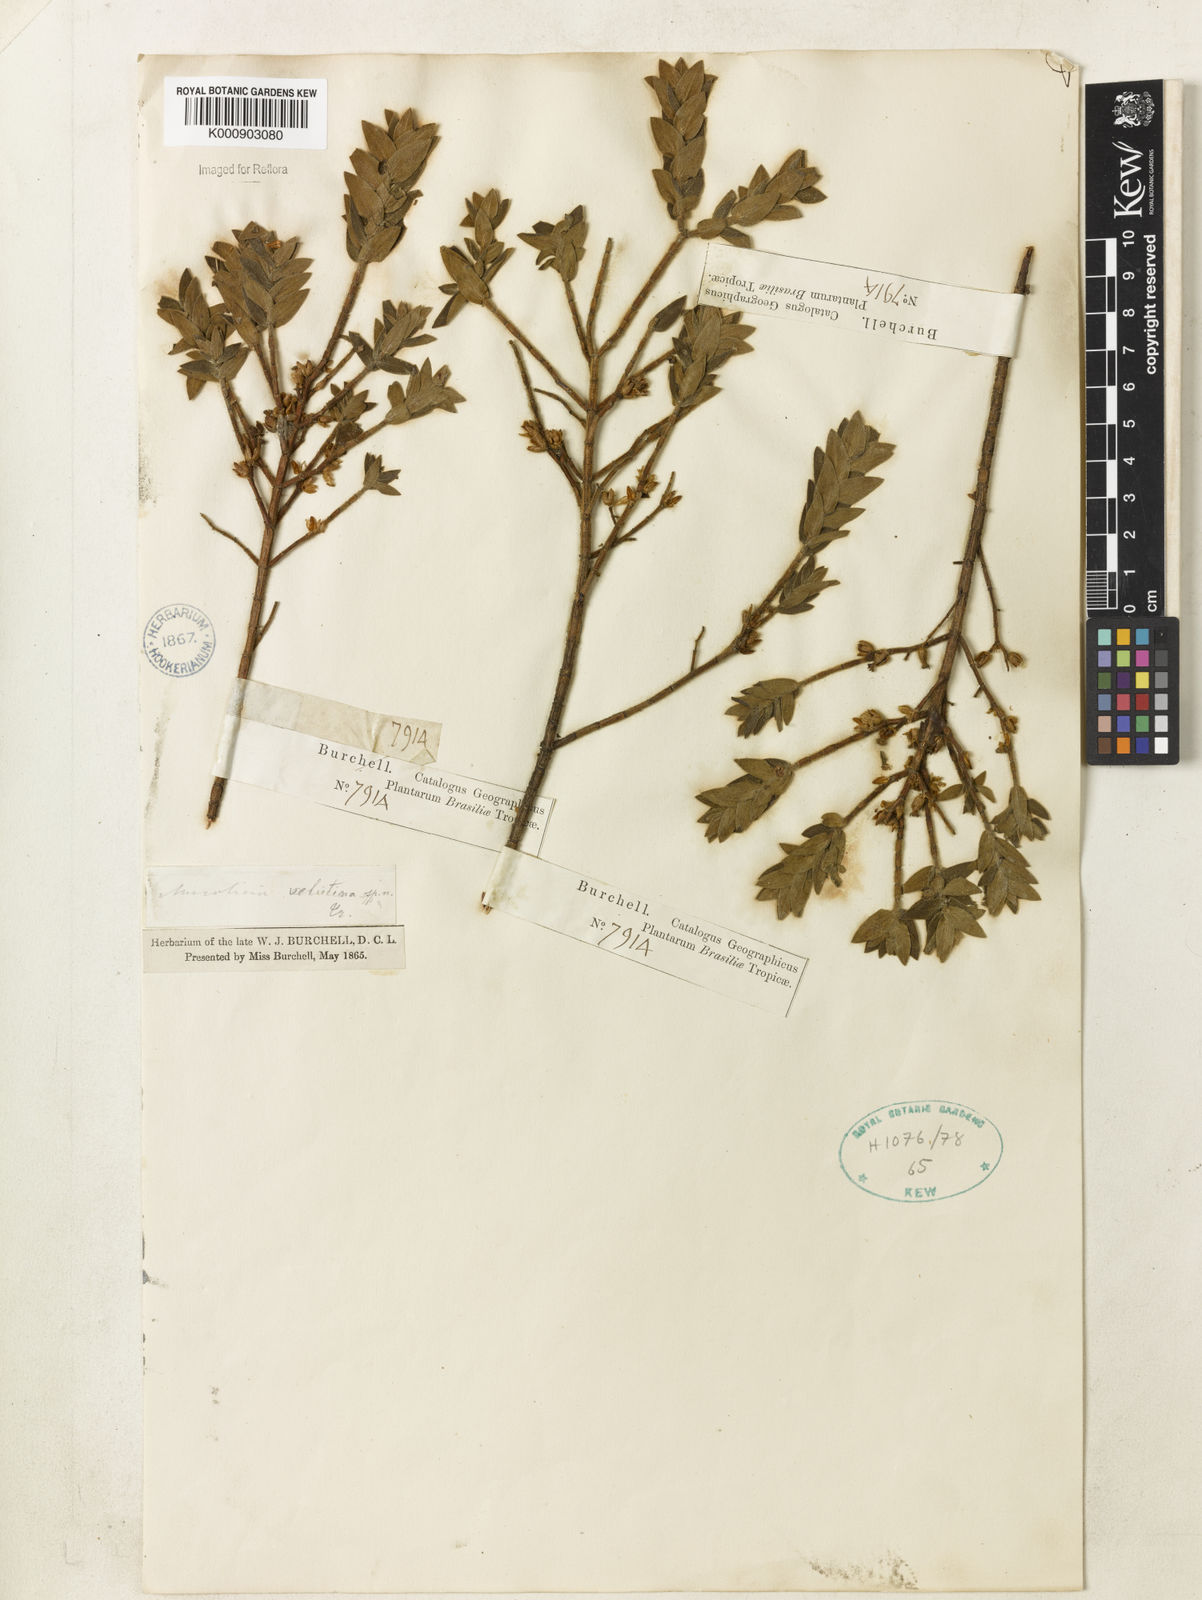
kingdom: Plantae
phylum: Tracheophyta
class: Magnoliopsida
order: Myrtales
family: Melastomataceae
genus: Microlicia
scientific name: Microlicia
